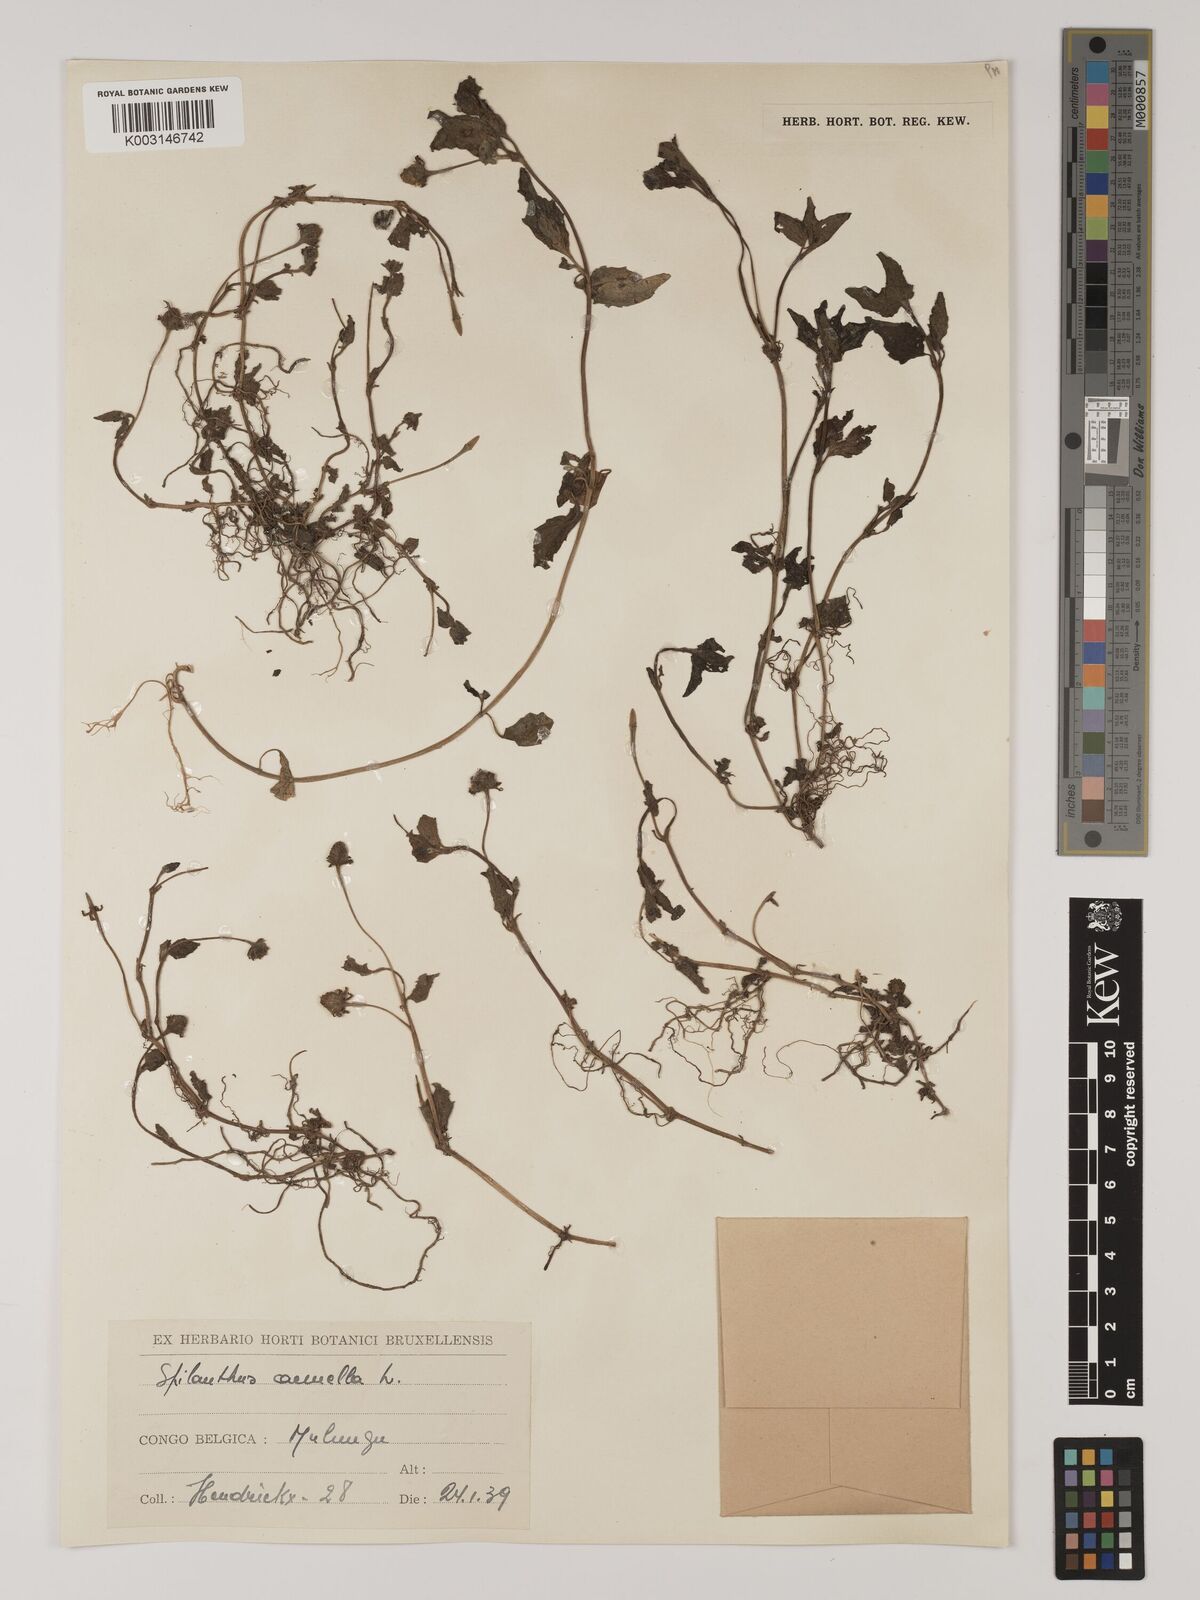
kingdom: Plantae
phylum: Tracheophyta
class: Magnoliopsida
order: Asterales
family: Asteraceae
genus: Blainvillea
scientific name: Blainvillea acmella
